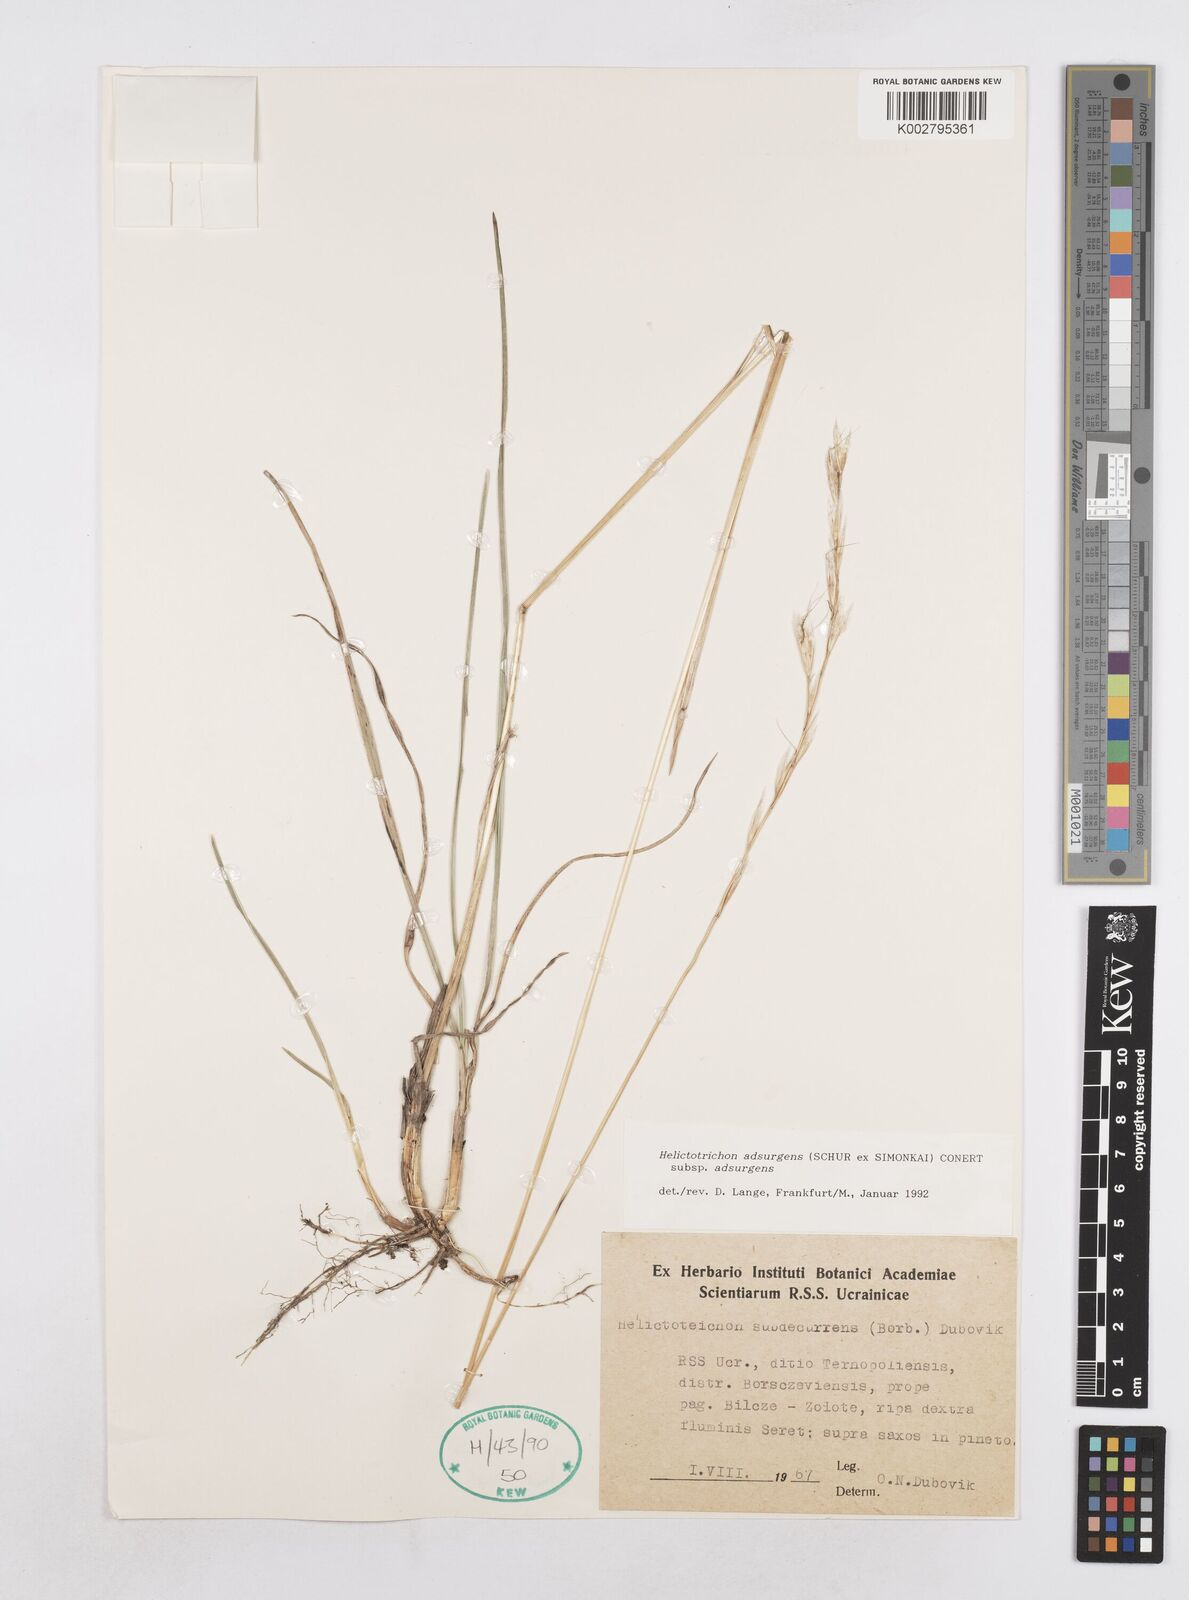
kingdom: Plantae
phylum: Tracheophyta
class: Liliopsida
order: Poales
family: Poaceae
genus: Helictotrichon
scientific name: Helictotrichon
